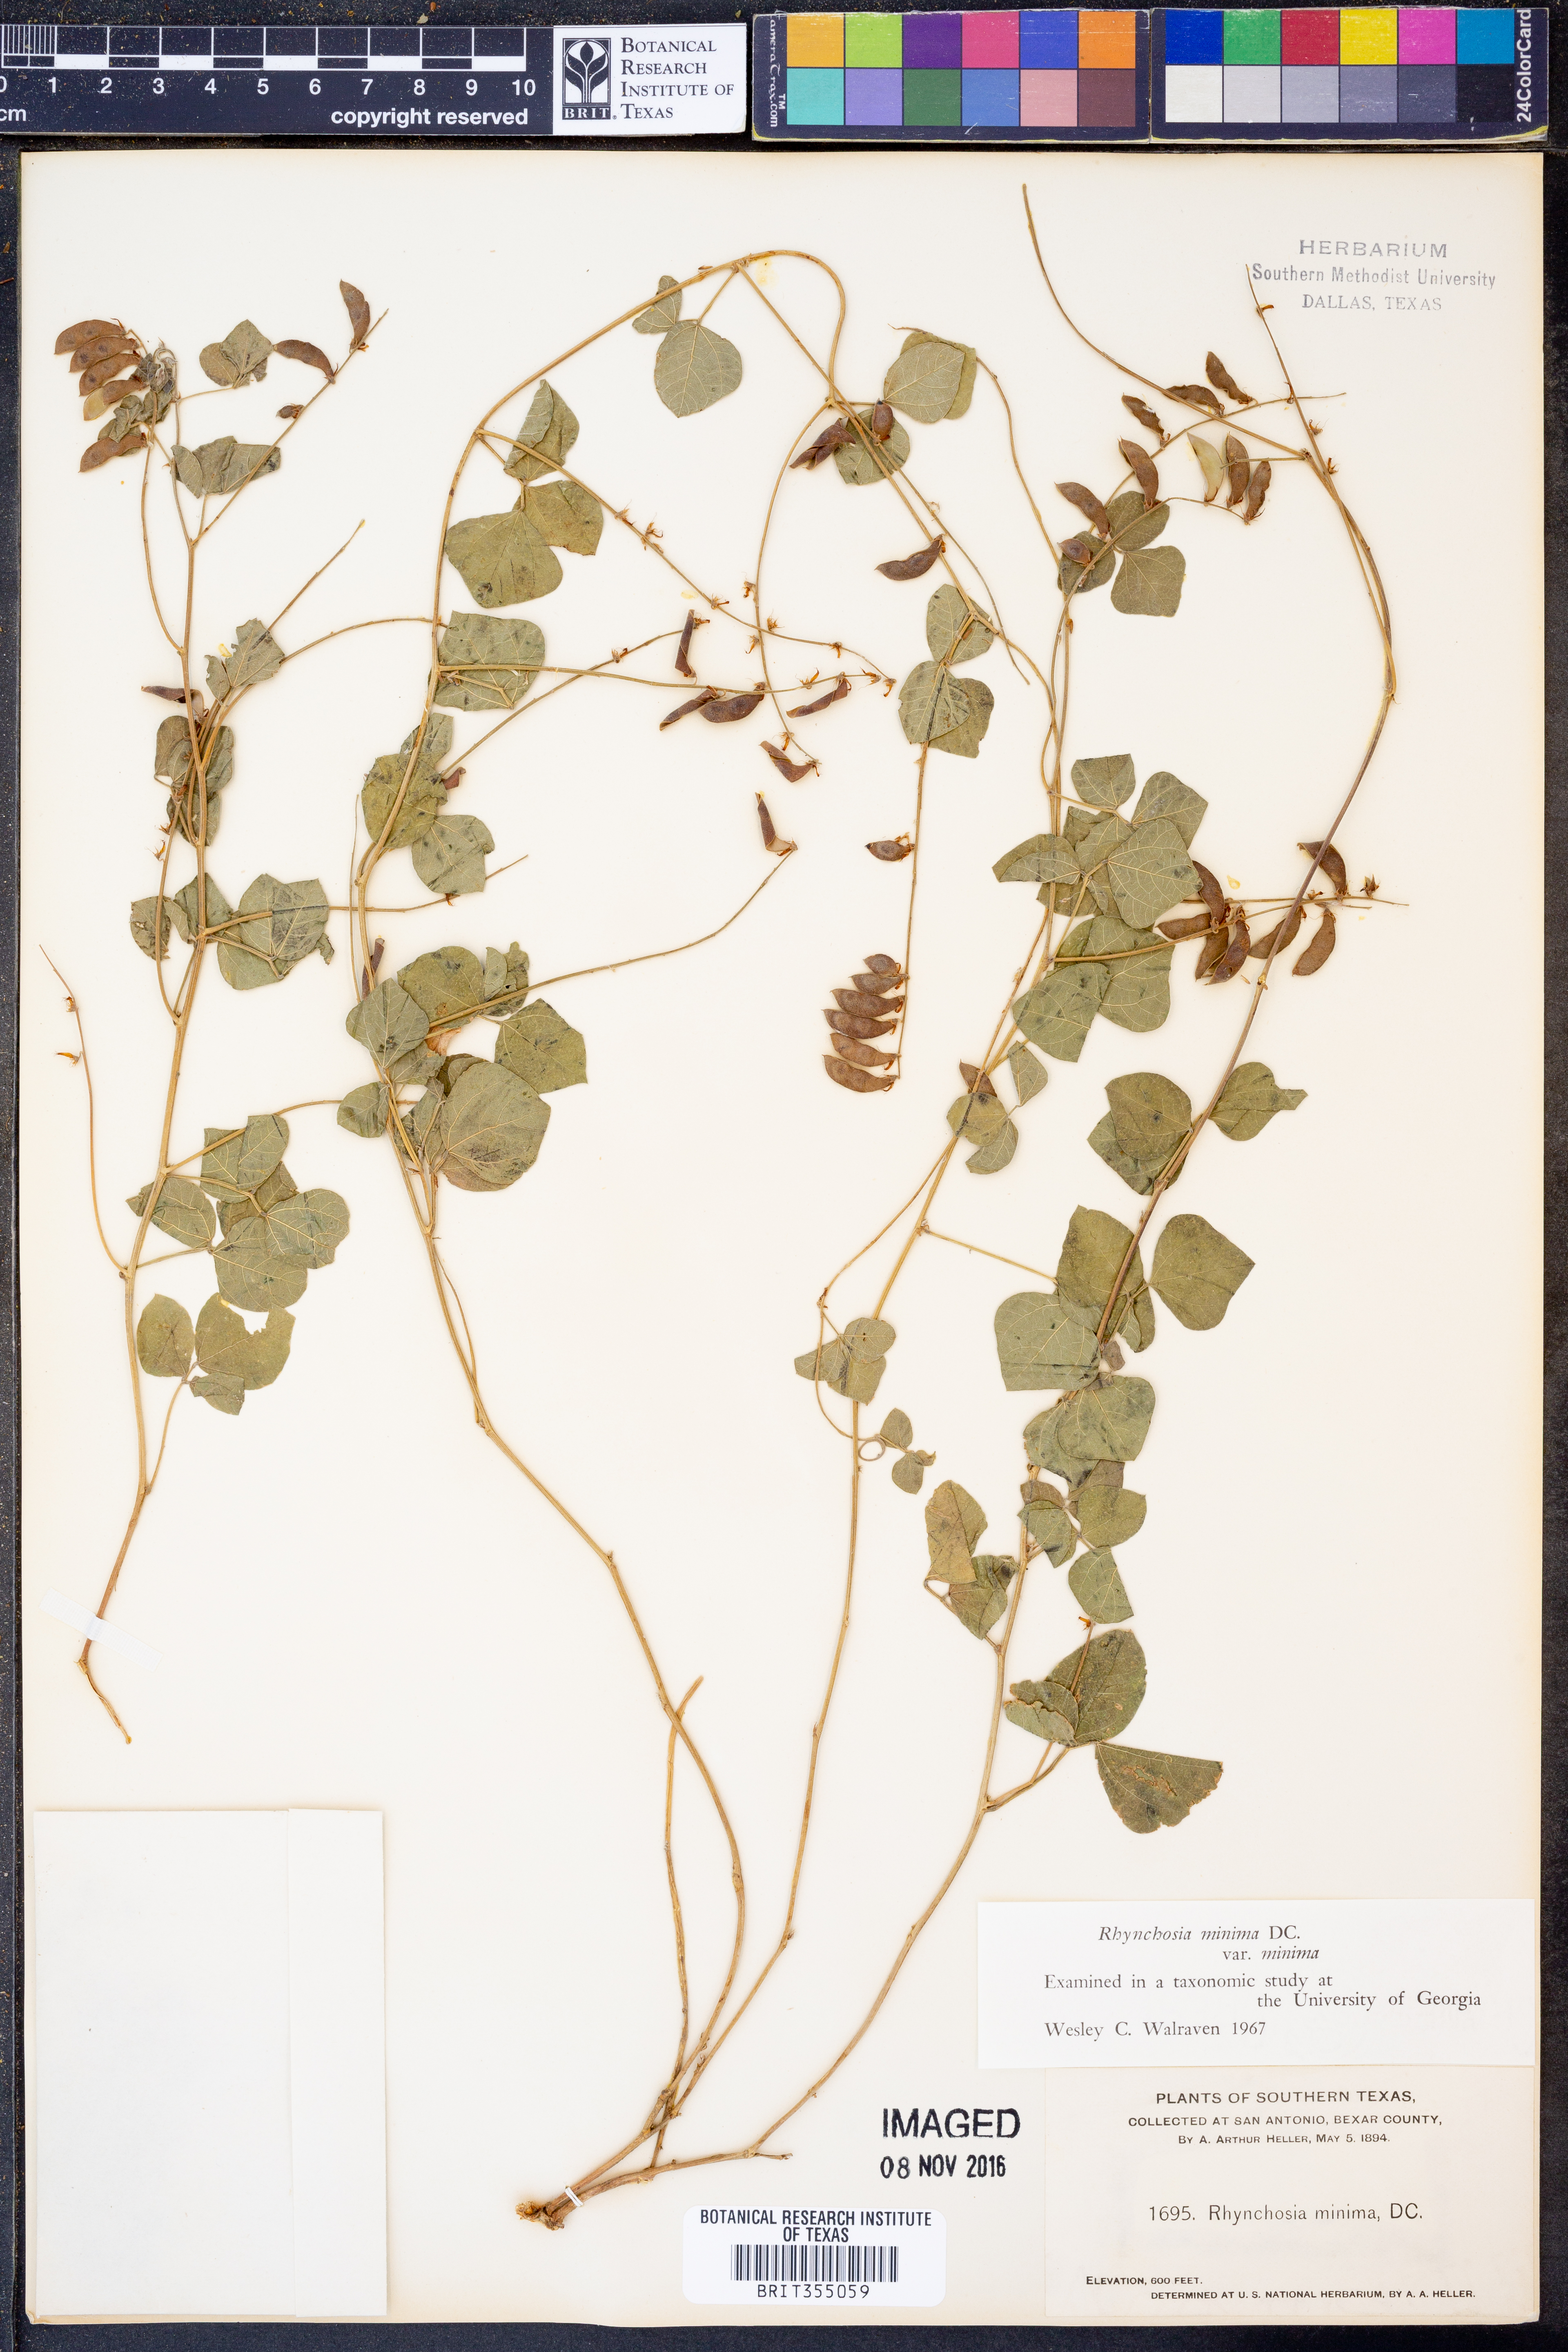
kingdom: Plantae
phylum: Tracheophyta
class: Magnoliopsida
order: Fabales
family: Fabaceae
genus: Rhynchosia
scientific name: Rhynchosia minima
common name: Least snoutbean
